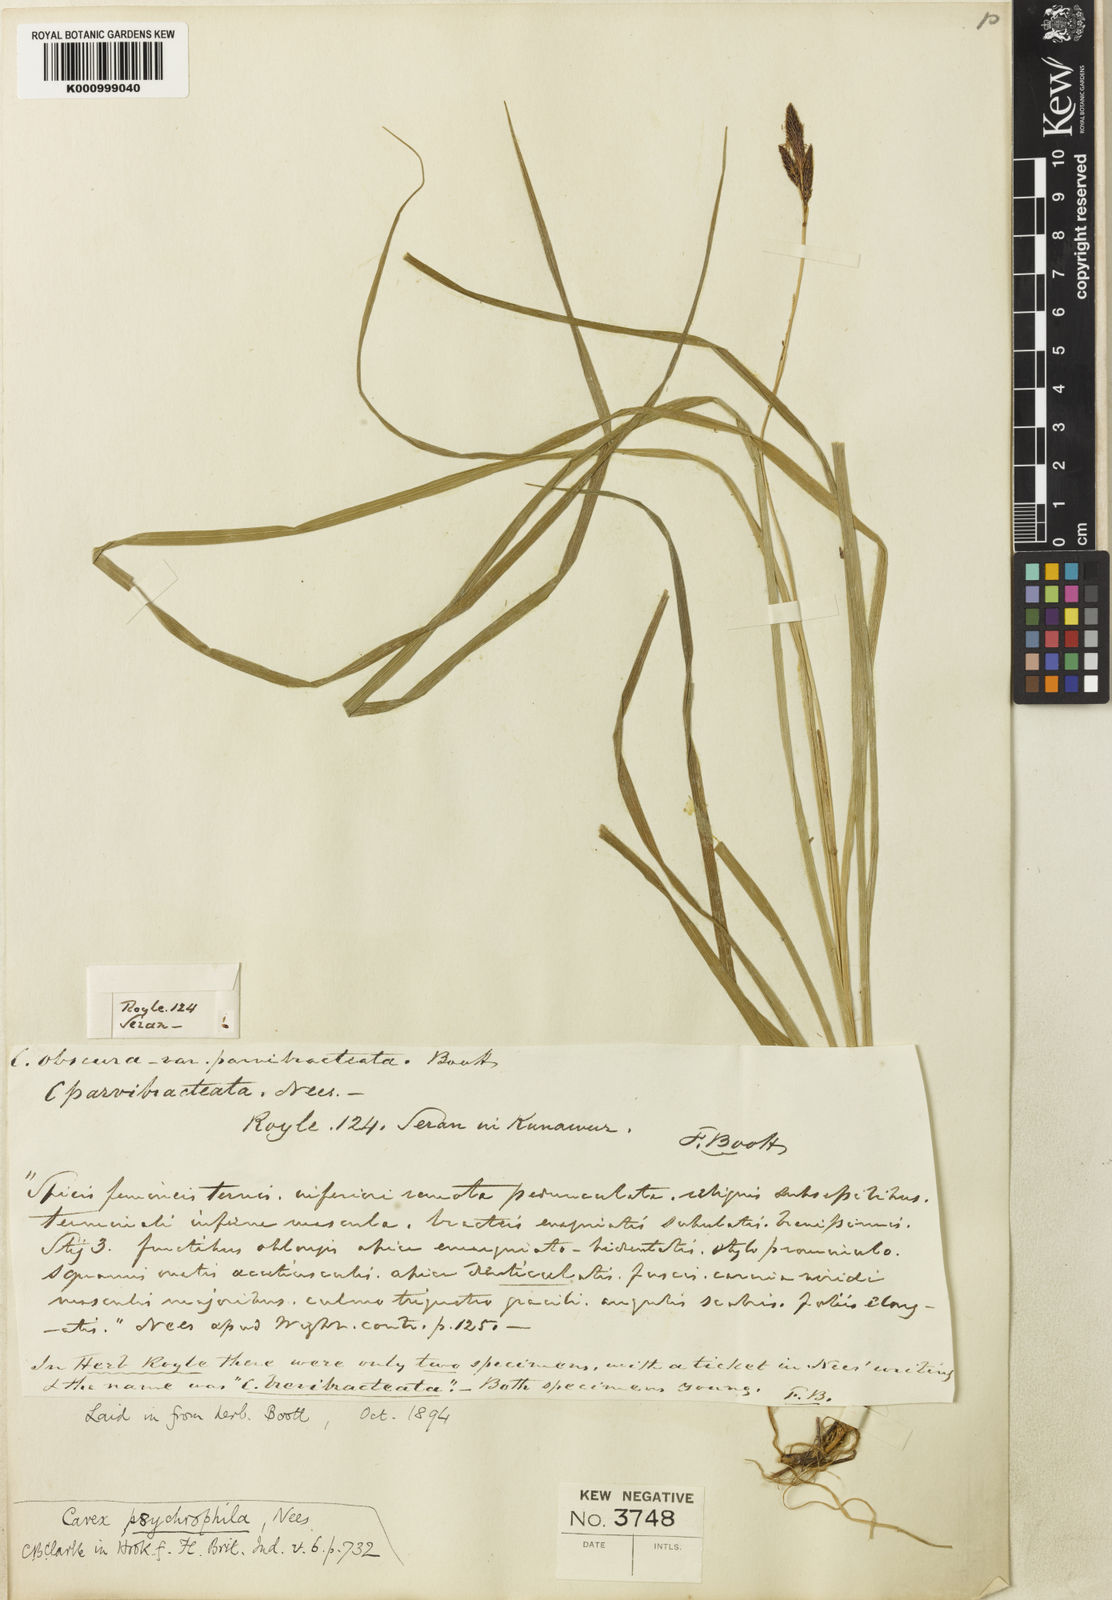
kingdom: Plantae
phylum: Tracheophyta
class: Liliopsida
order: Poales
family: Cyperaceae
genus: Carex
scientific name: Carex psychrophila
